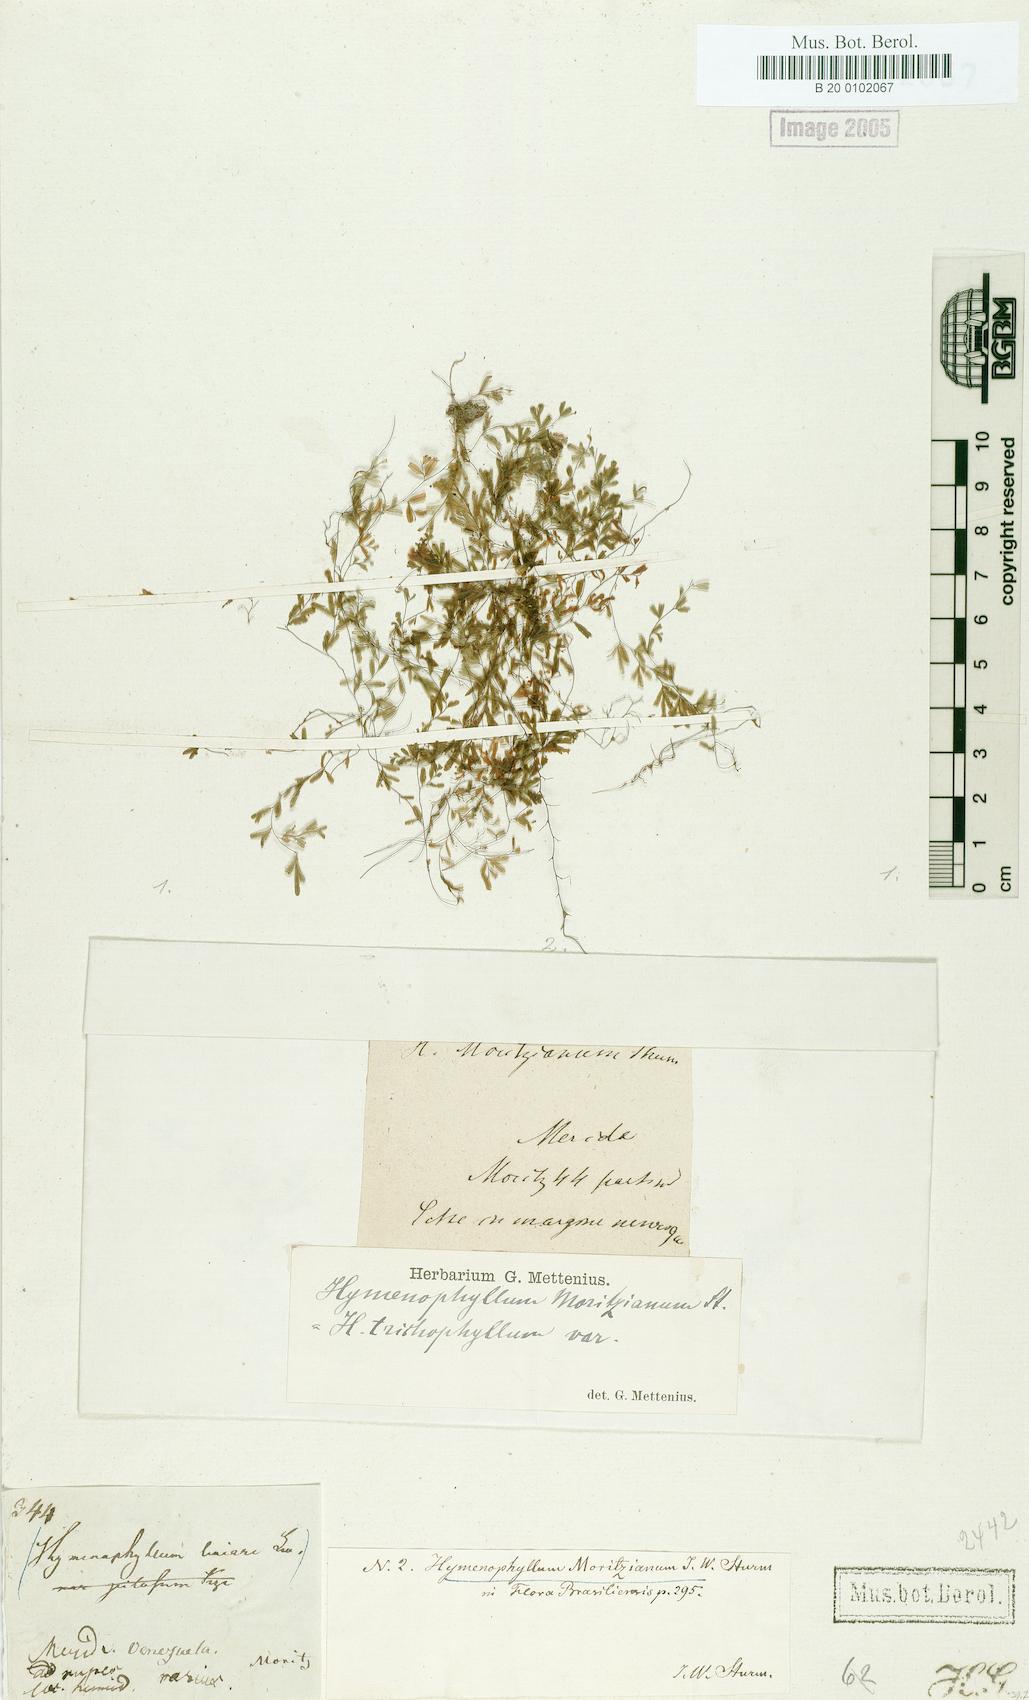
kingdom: Plantae
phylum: Tracheophyta
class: Polypodiopsida
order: Hymenophyllales
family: Hymenophyllaceae
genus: Hymenophyllum
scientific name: Hymenophyllum trichophyllum
